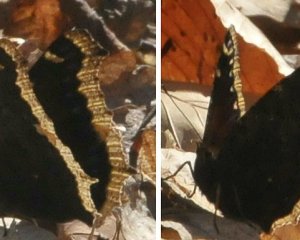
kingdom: Animalia
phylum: Arthropoda
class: Insecta
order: Lepidoptera
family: Nymphalidae
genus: Nymphalis
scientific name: Nymphalis antiopa
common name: Mourning Cloak
